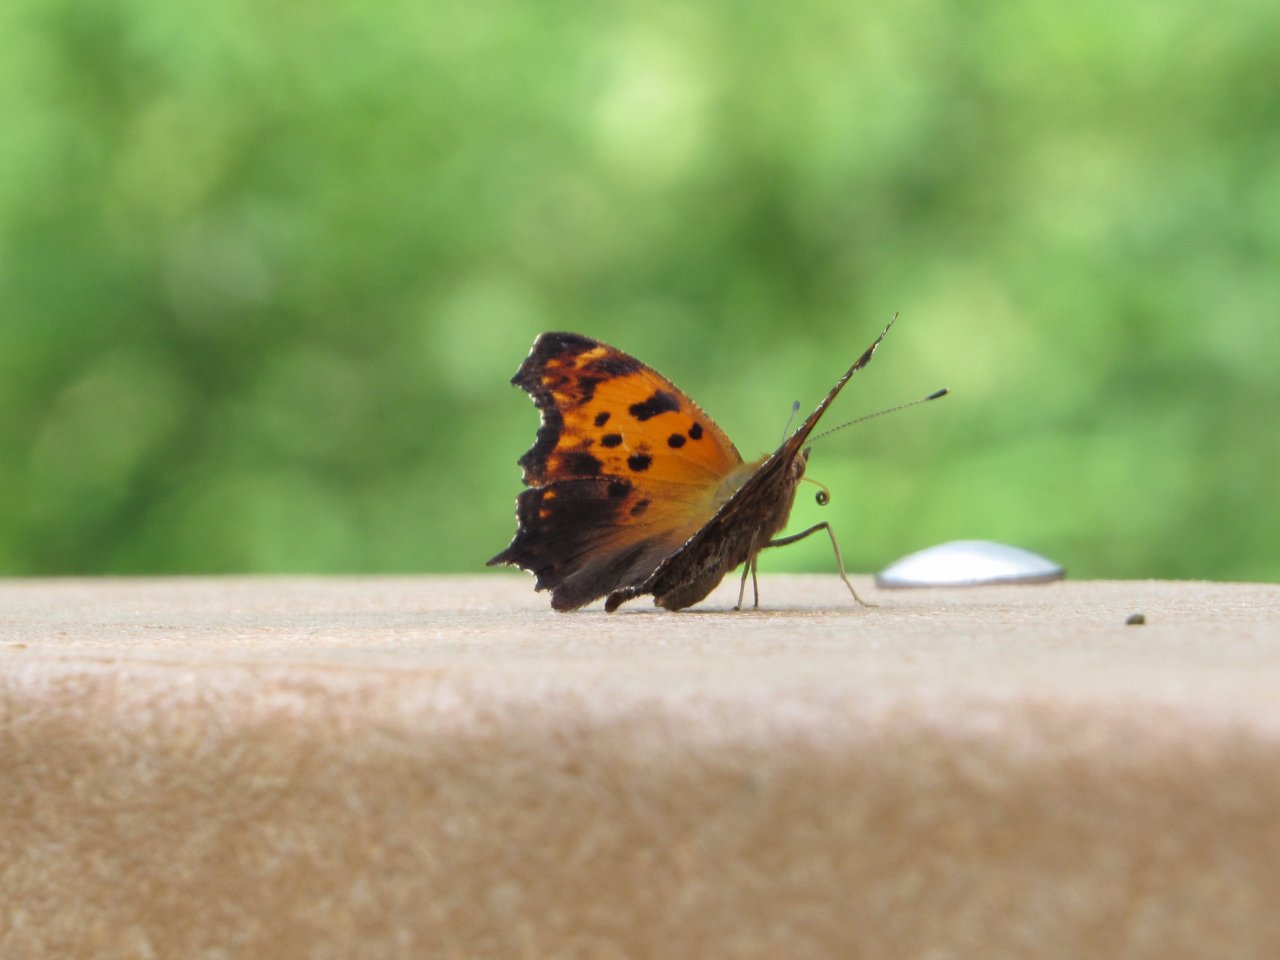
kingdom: Animalia
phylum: Arthropoda
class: Insecta
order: Lepidoptera
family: Nymphalidae
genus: Polygonia
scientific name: Polygonia comma
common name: Eastern Comma
